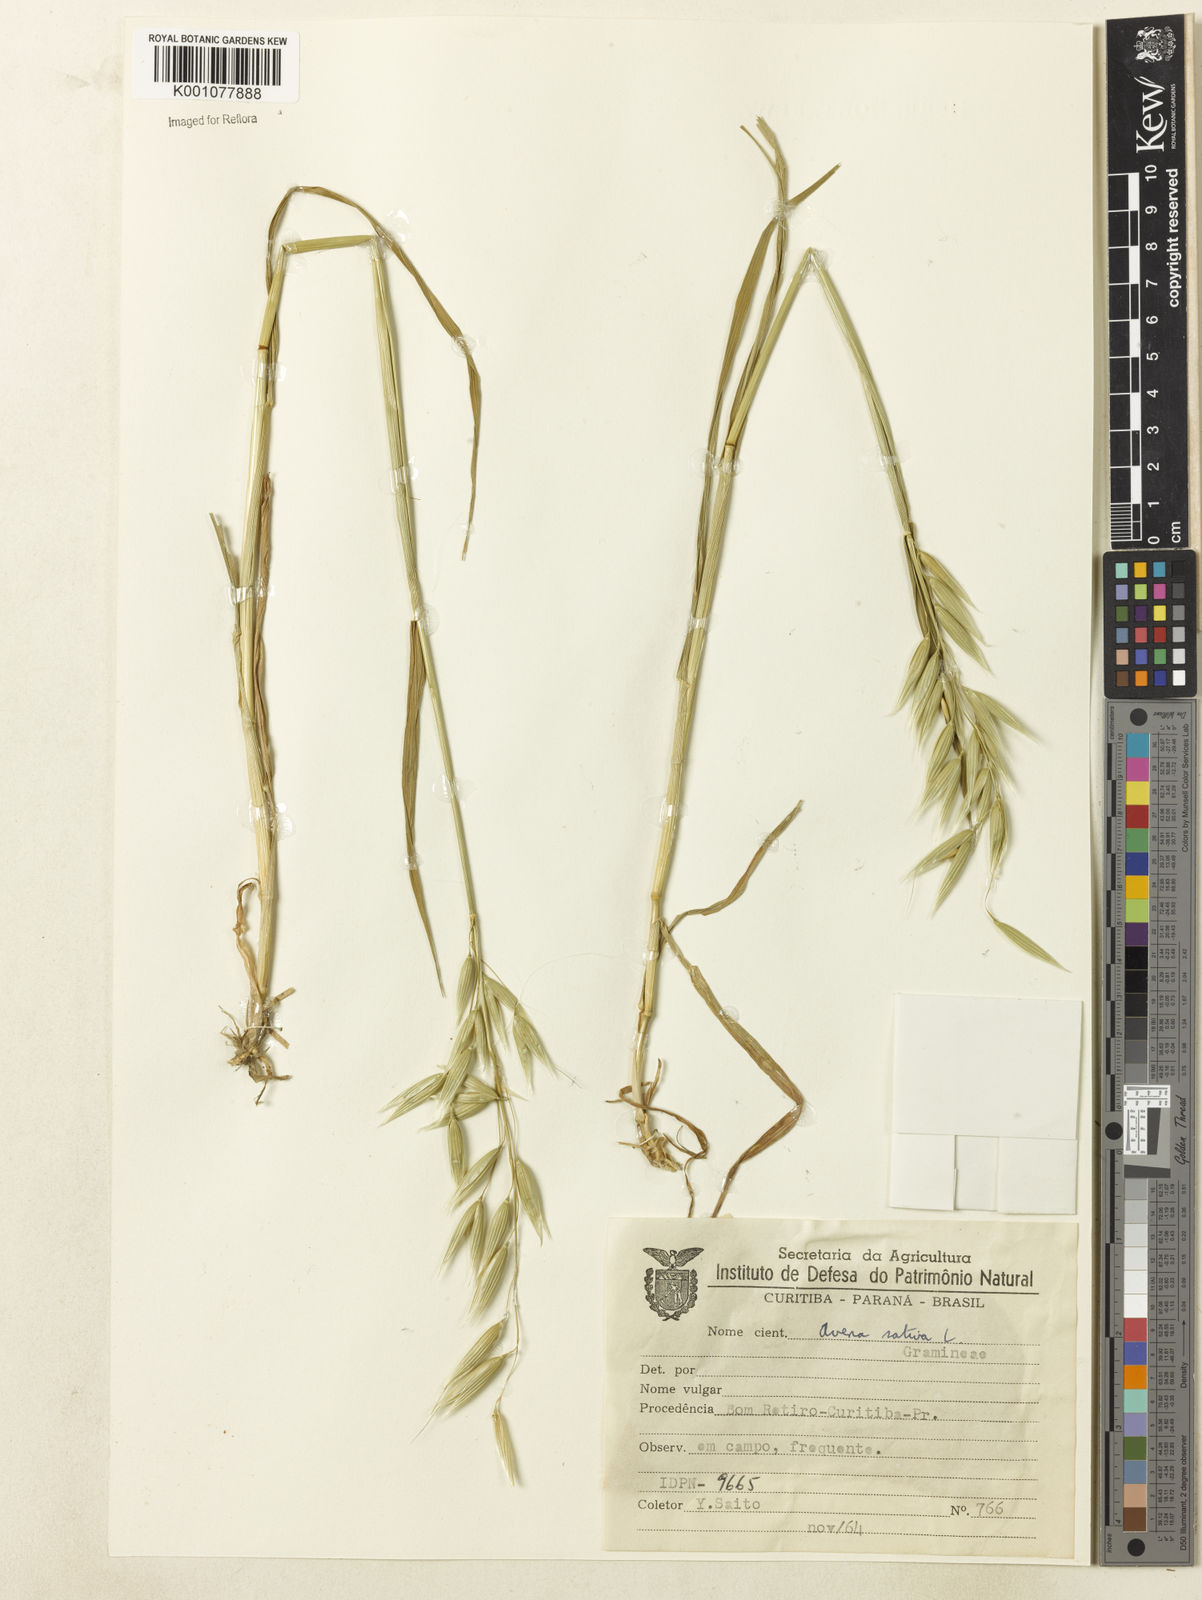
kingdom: Plantae
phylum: Tracheophyta
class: Liliopsida
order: Poales
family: Poaceae
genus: Avena
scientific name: Avena sativa
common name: Oat
